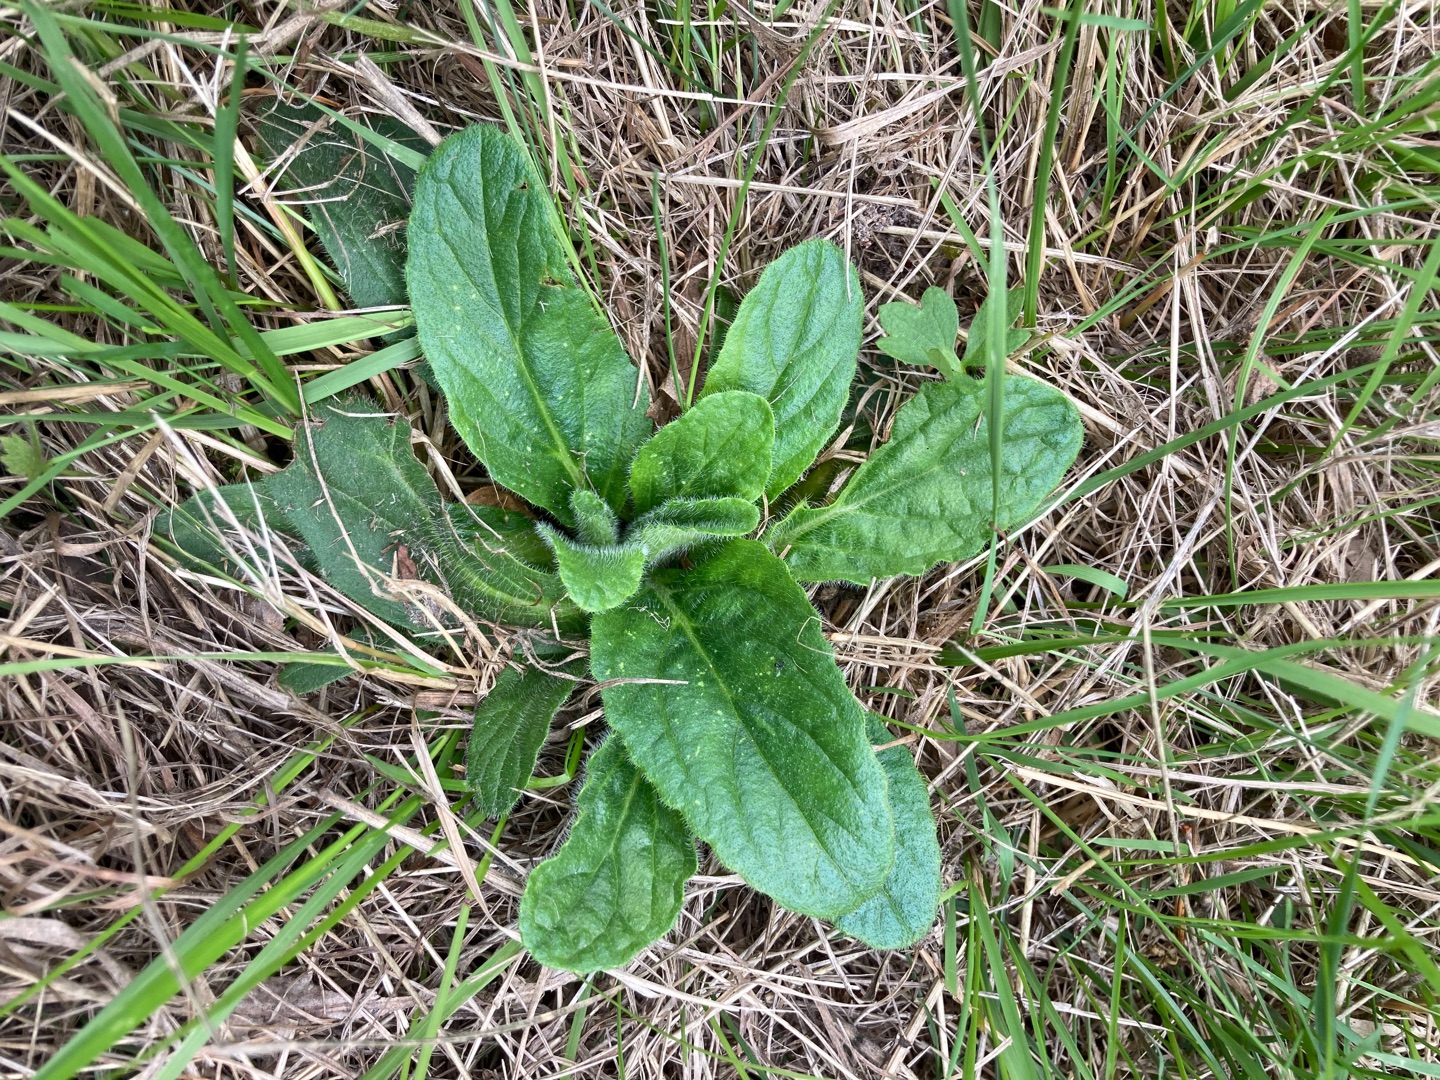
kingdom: Plantae
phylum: Tracheophyta
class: Magnoliopsida
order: Lamiales
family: Lamiaceae
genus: Ajuga
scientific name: Ajuga pyramidalis
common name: Pyramide-læbeløs
